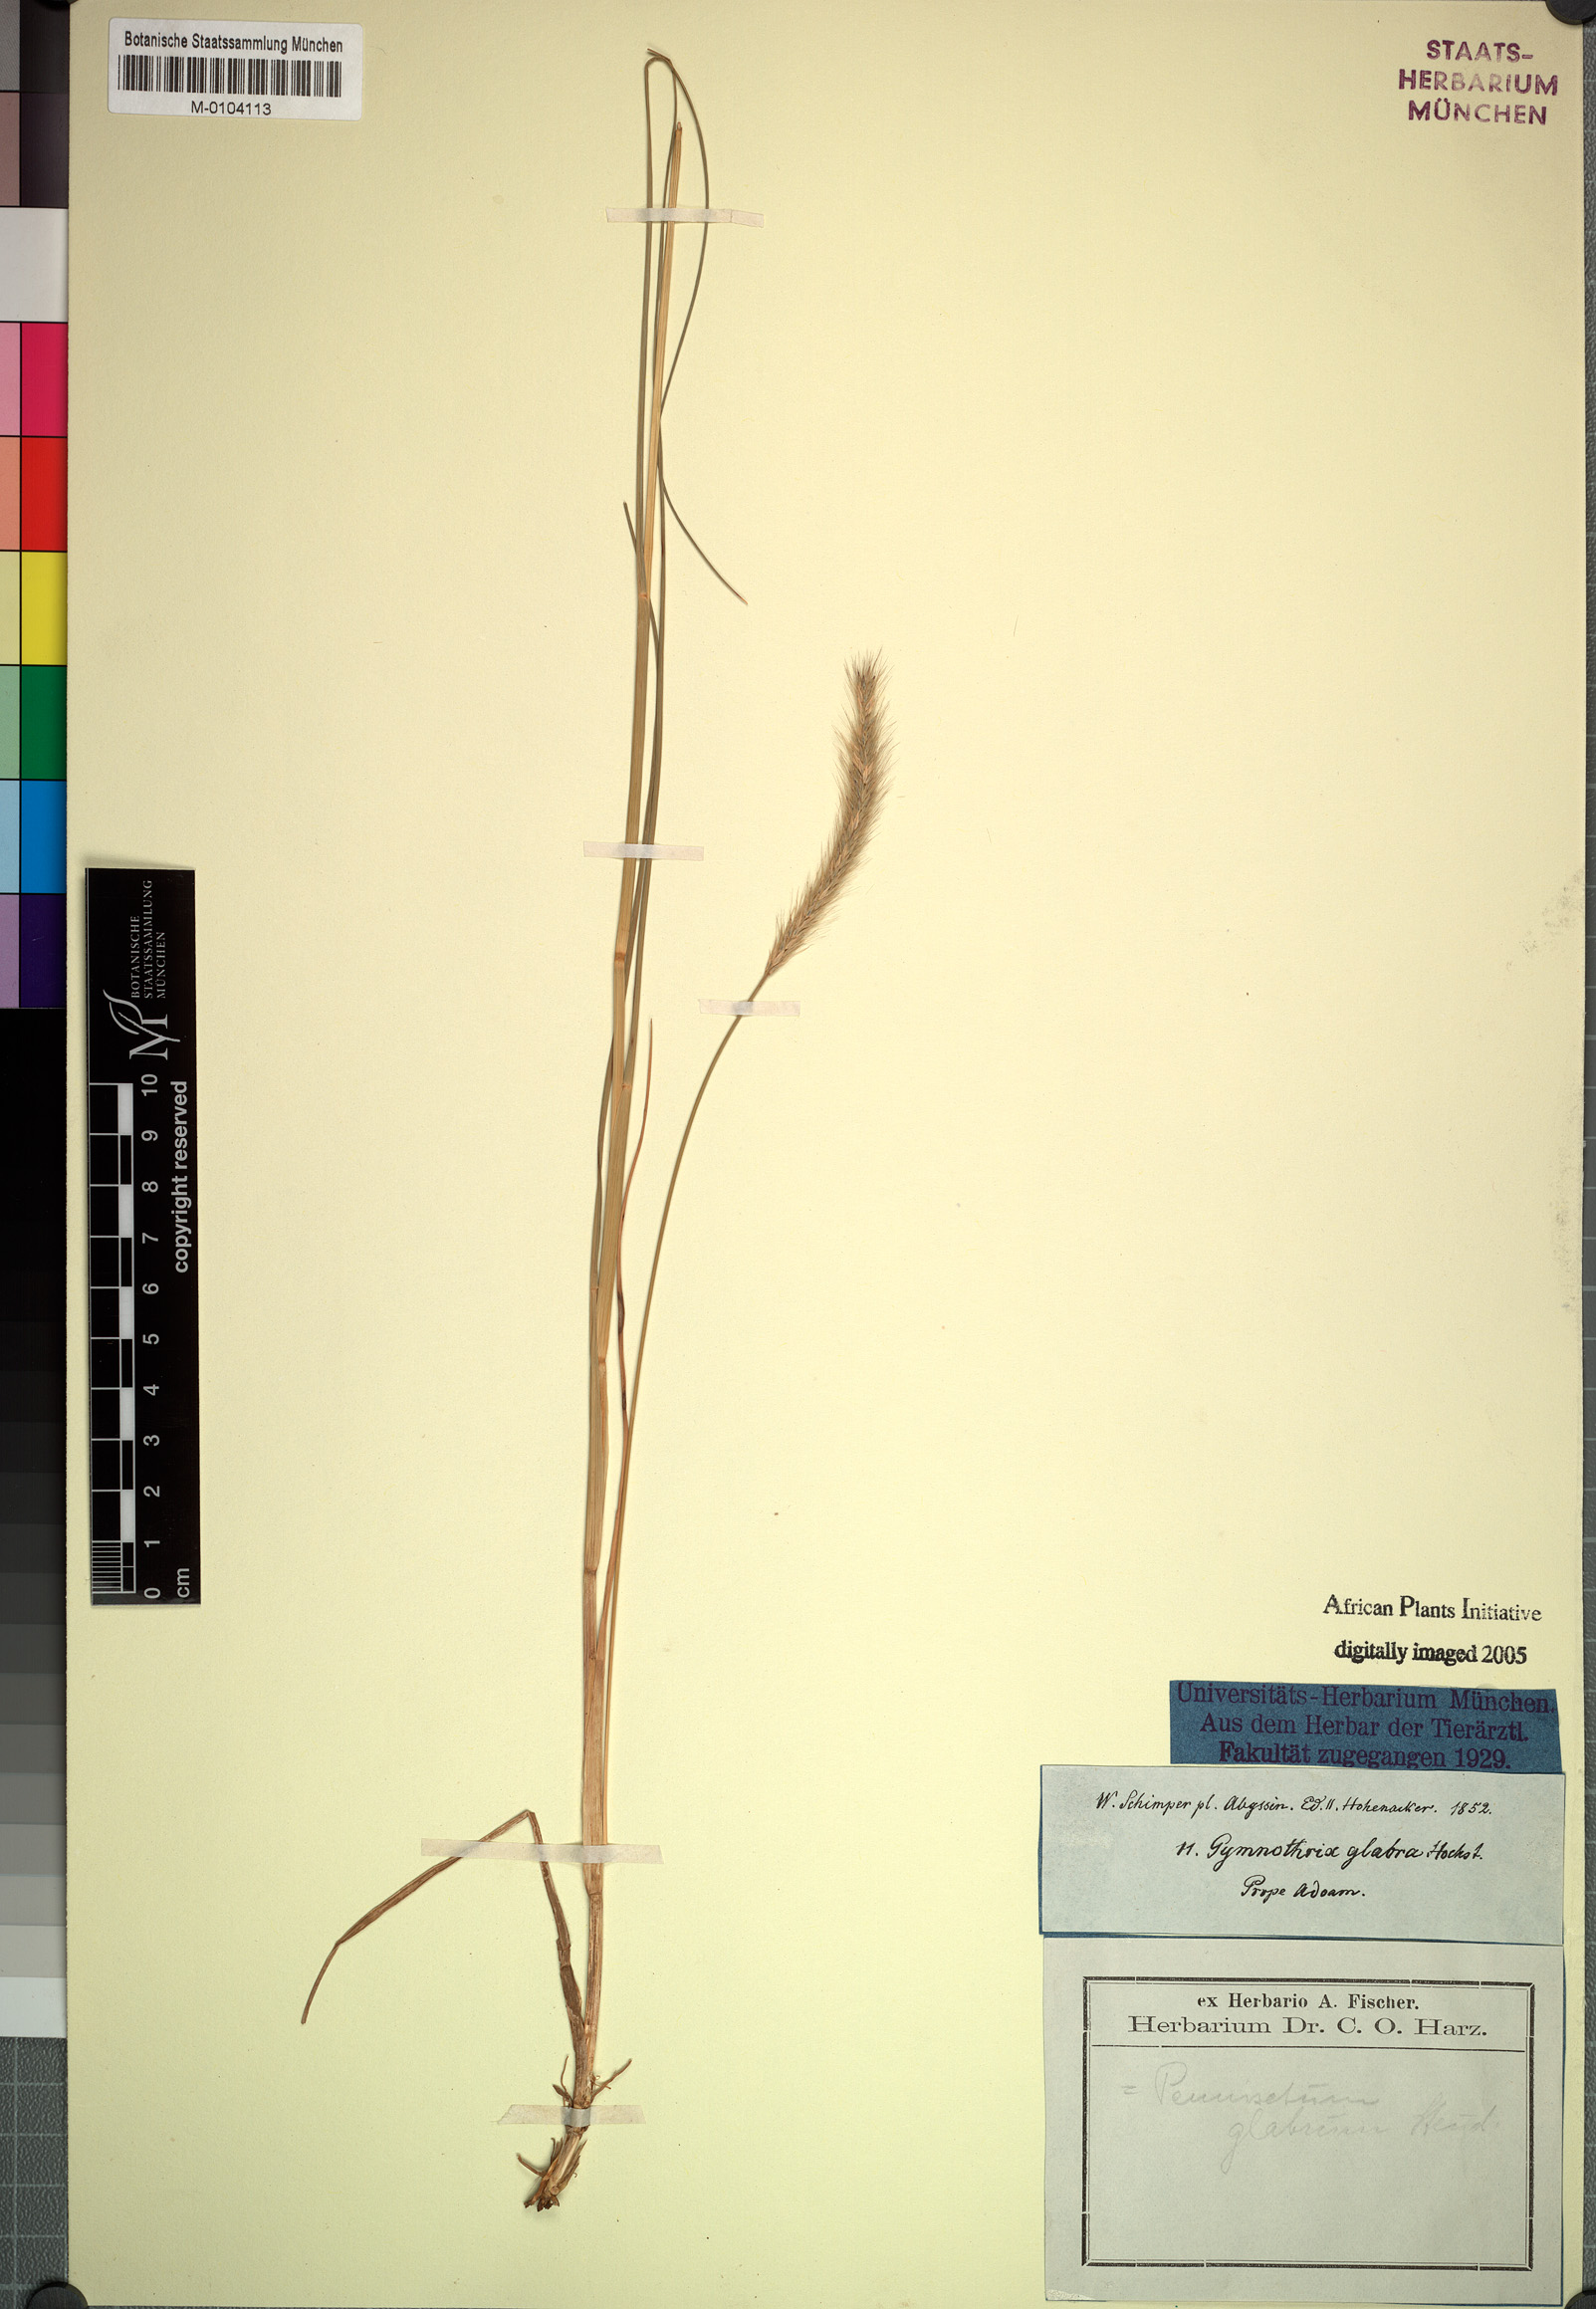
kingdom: Plantae
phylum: Tracheophyta
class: Liliopsida
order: Poales
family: Poaceae
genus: Cenchrus
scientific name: Cenchrus geniculatus
